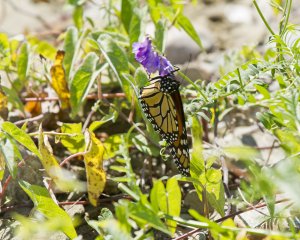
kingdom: Animalia
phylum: Arthropoda
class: Insecta
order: Lepidoptera
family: Nymphalidae
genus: Danaus
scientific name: Danaus plexippus
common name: Monarch
